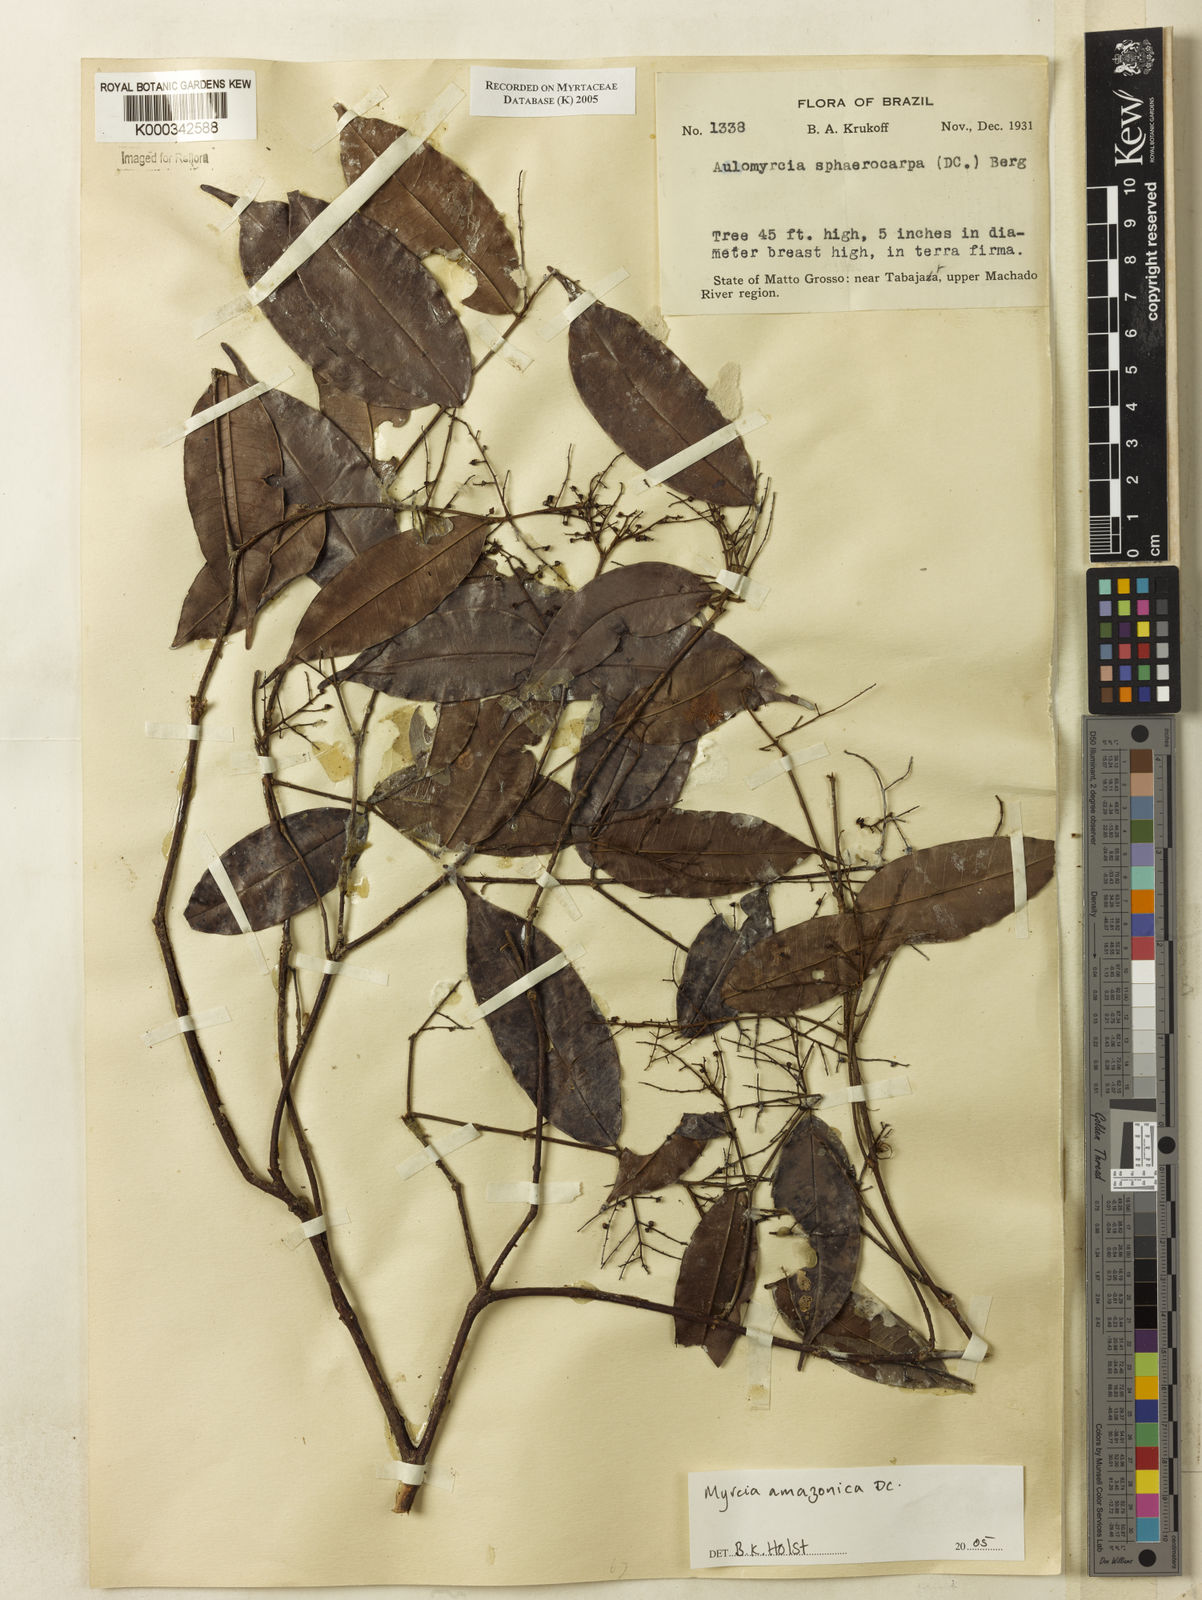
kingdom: Plantae
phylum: Tracheophyta
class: Magnoliopsida
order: Myrtales
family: Myrtaceae
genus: Myrcia
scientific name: Myrcia amazonica
